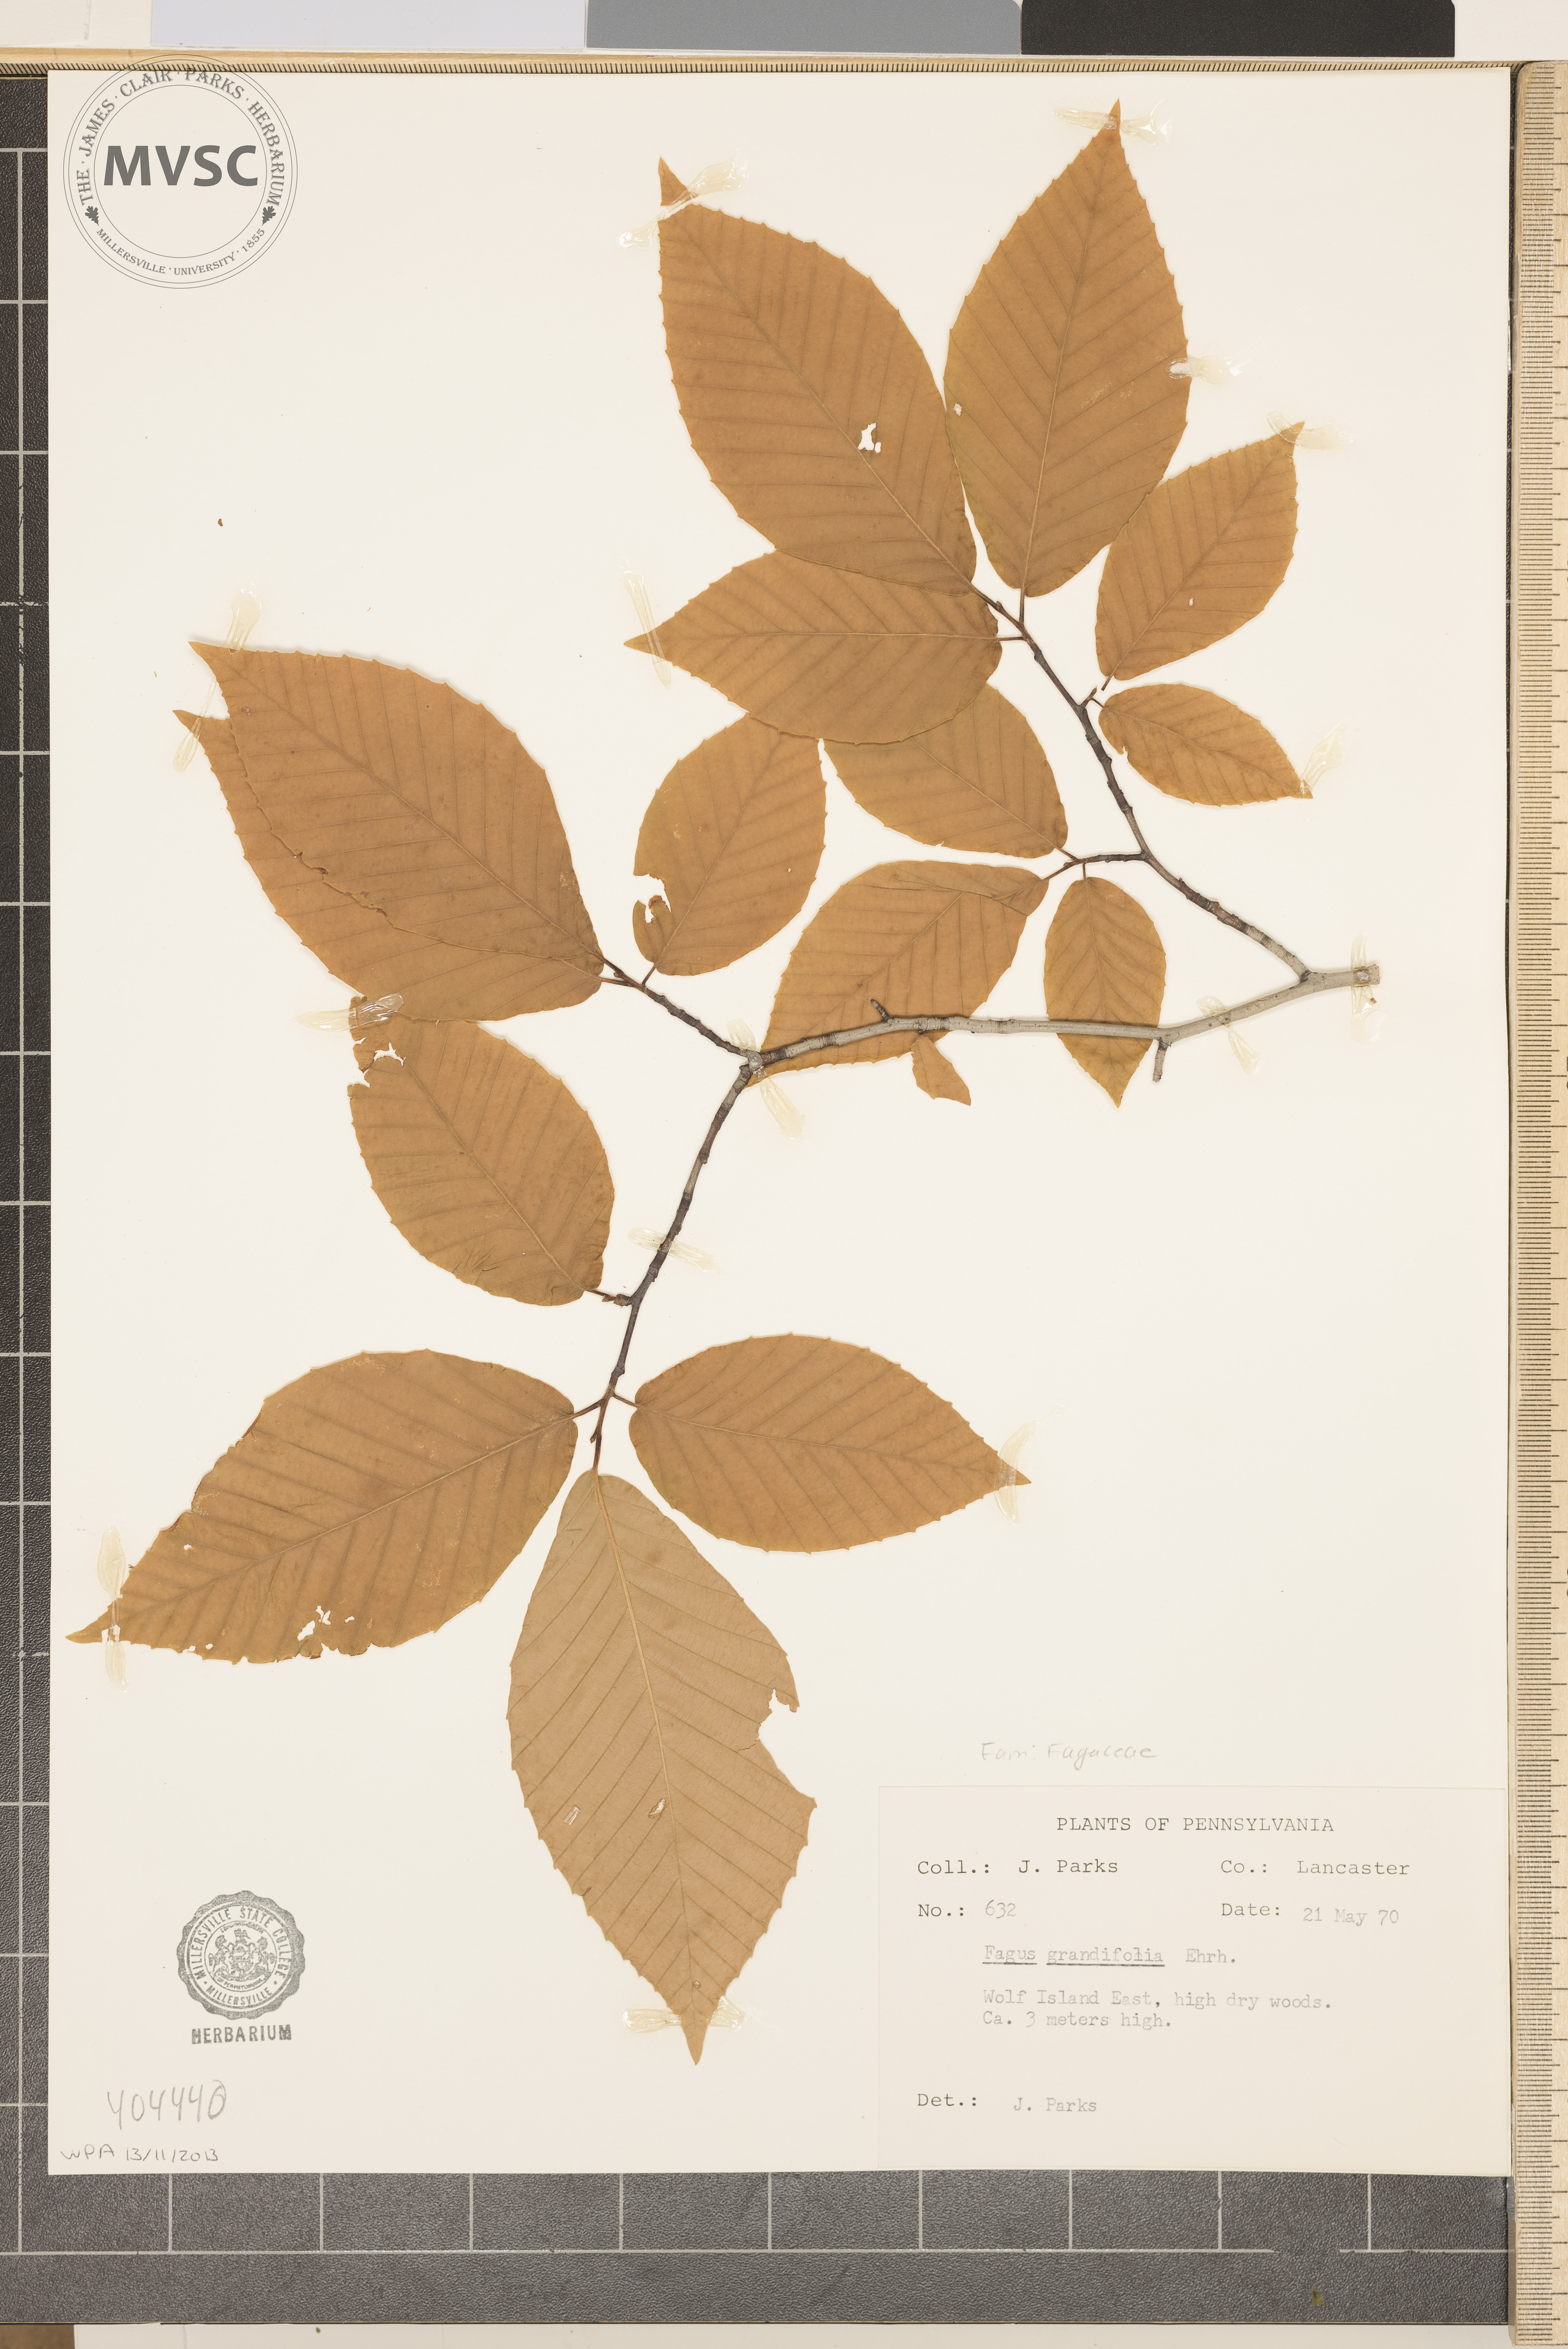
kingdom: Plantae
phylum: Tracheophyta
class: Magnoliopsida
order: Fagales
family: Fagaceae
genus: Fagus
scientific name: Fagus grandifolia
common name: American beech
